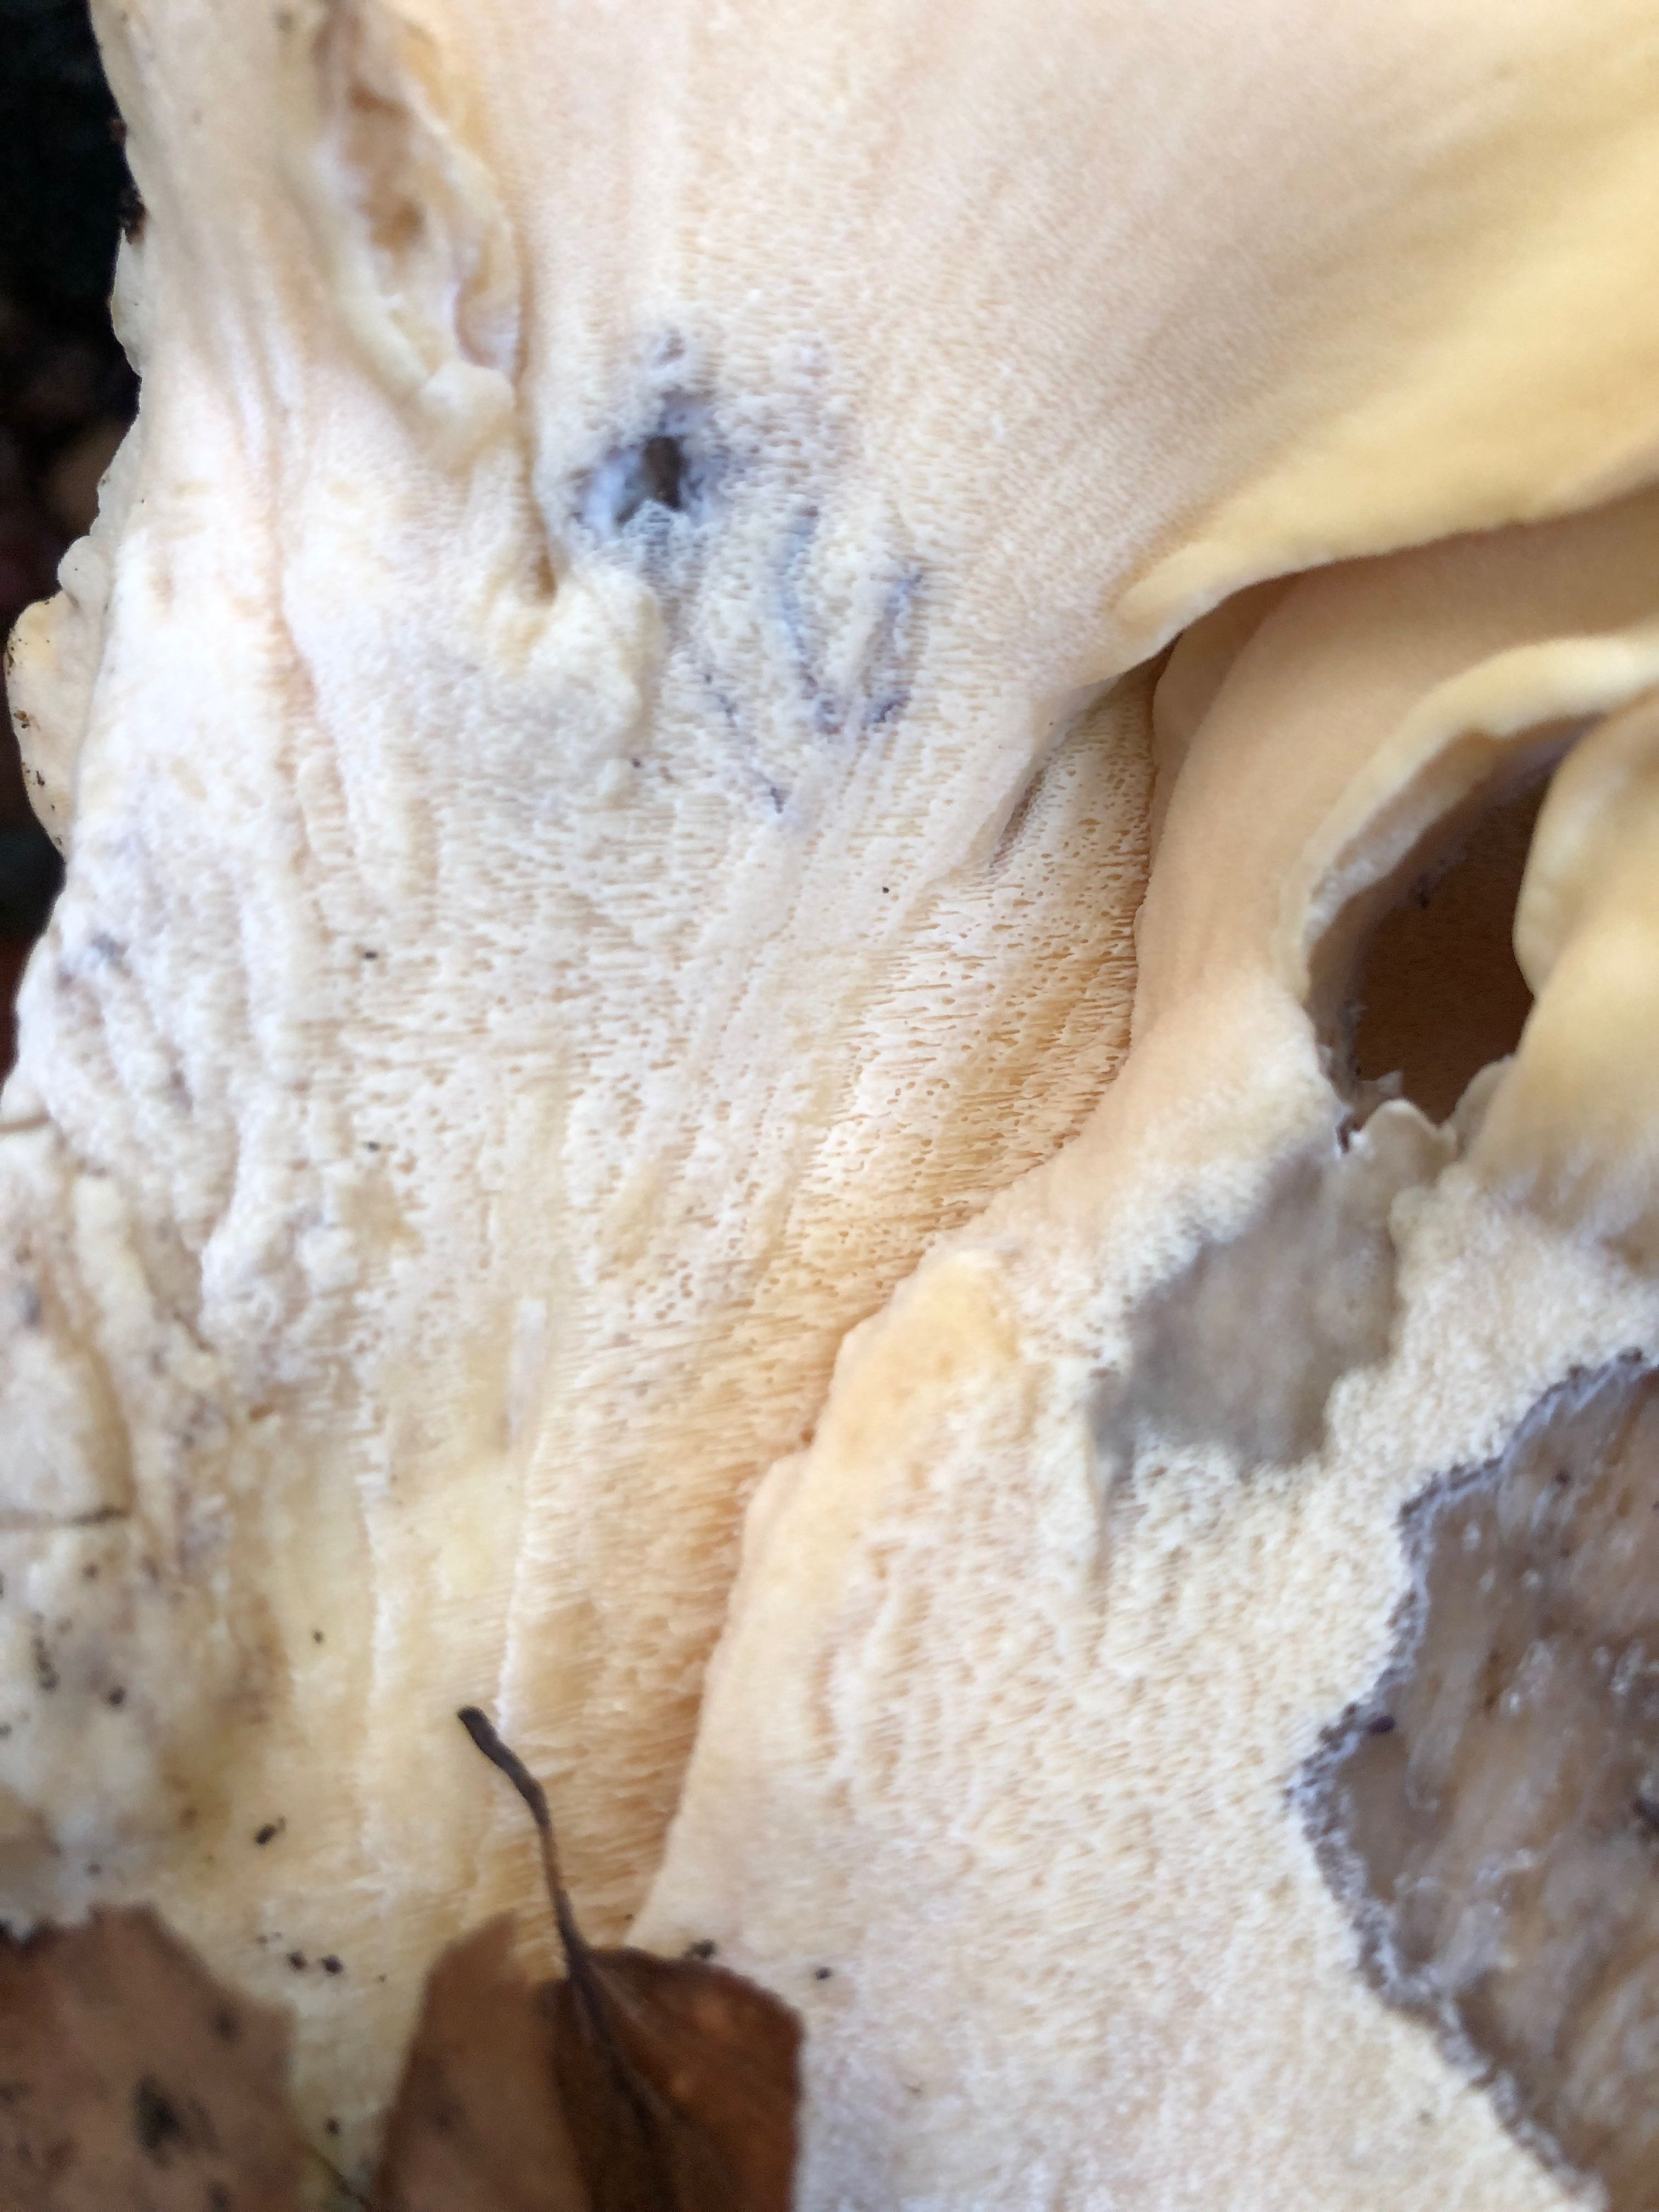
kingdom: Fungi
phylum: Basidiomycota
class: Agaricomycetes
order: Polyporales
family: Meripilaceae
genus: Meripilus
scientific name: Meripilus giganteus
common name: kæmpeporesvamp
